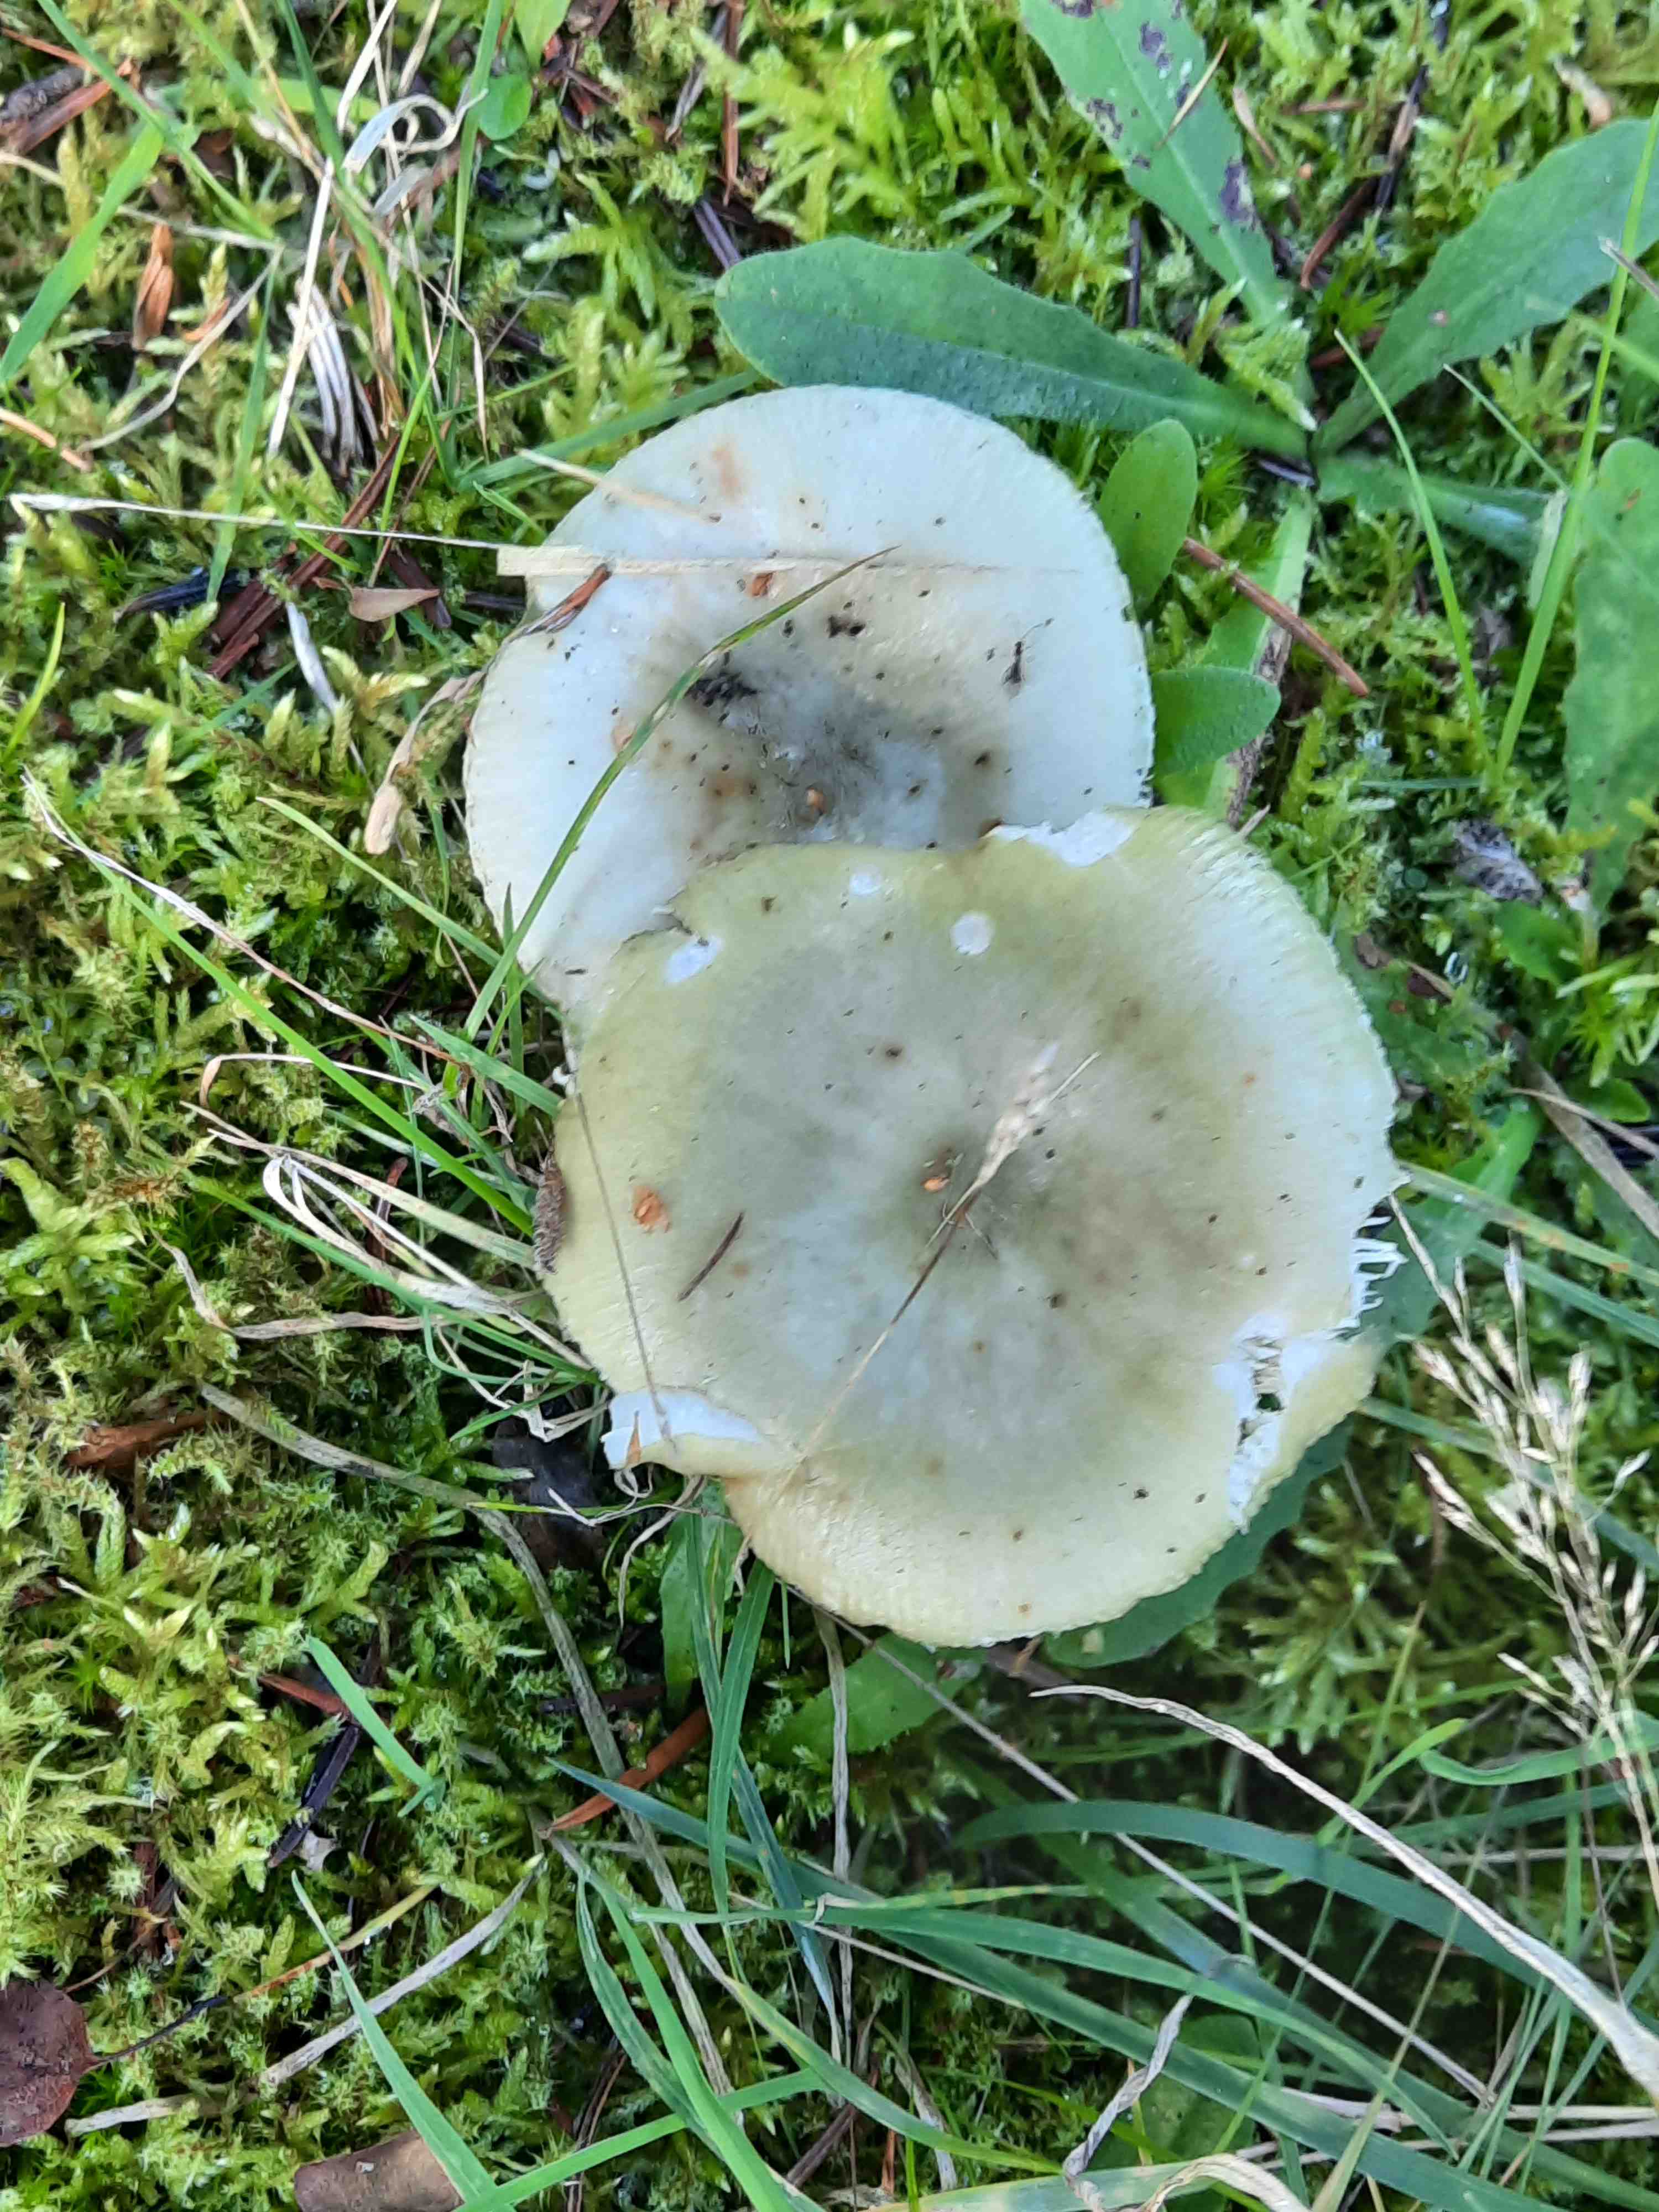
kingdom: Fungi
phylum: Basidiomycota
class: Agaricomycetes
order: Russulales
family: Russulaceae
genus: Russula
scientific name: Russula aeruginea
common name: græsgrøn skørhat
